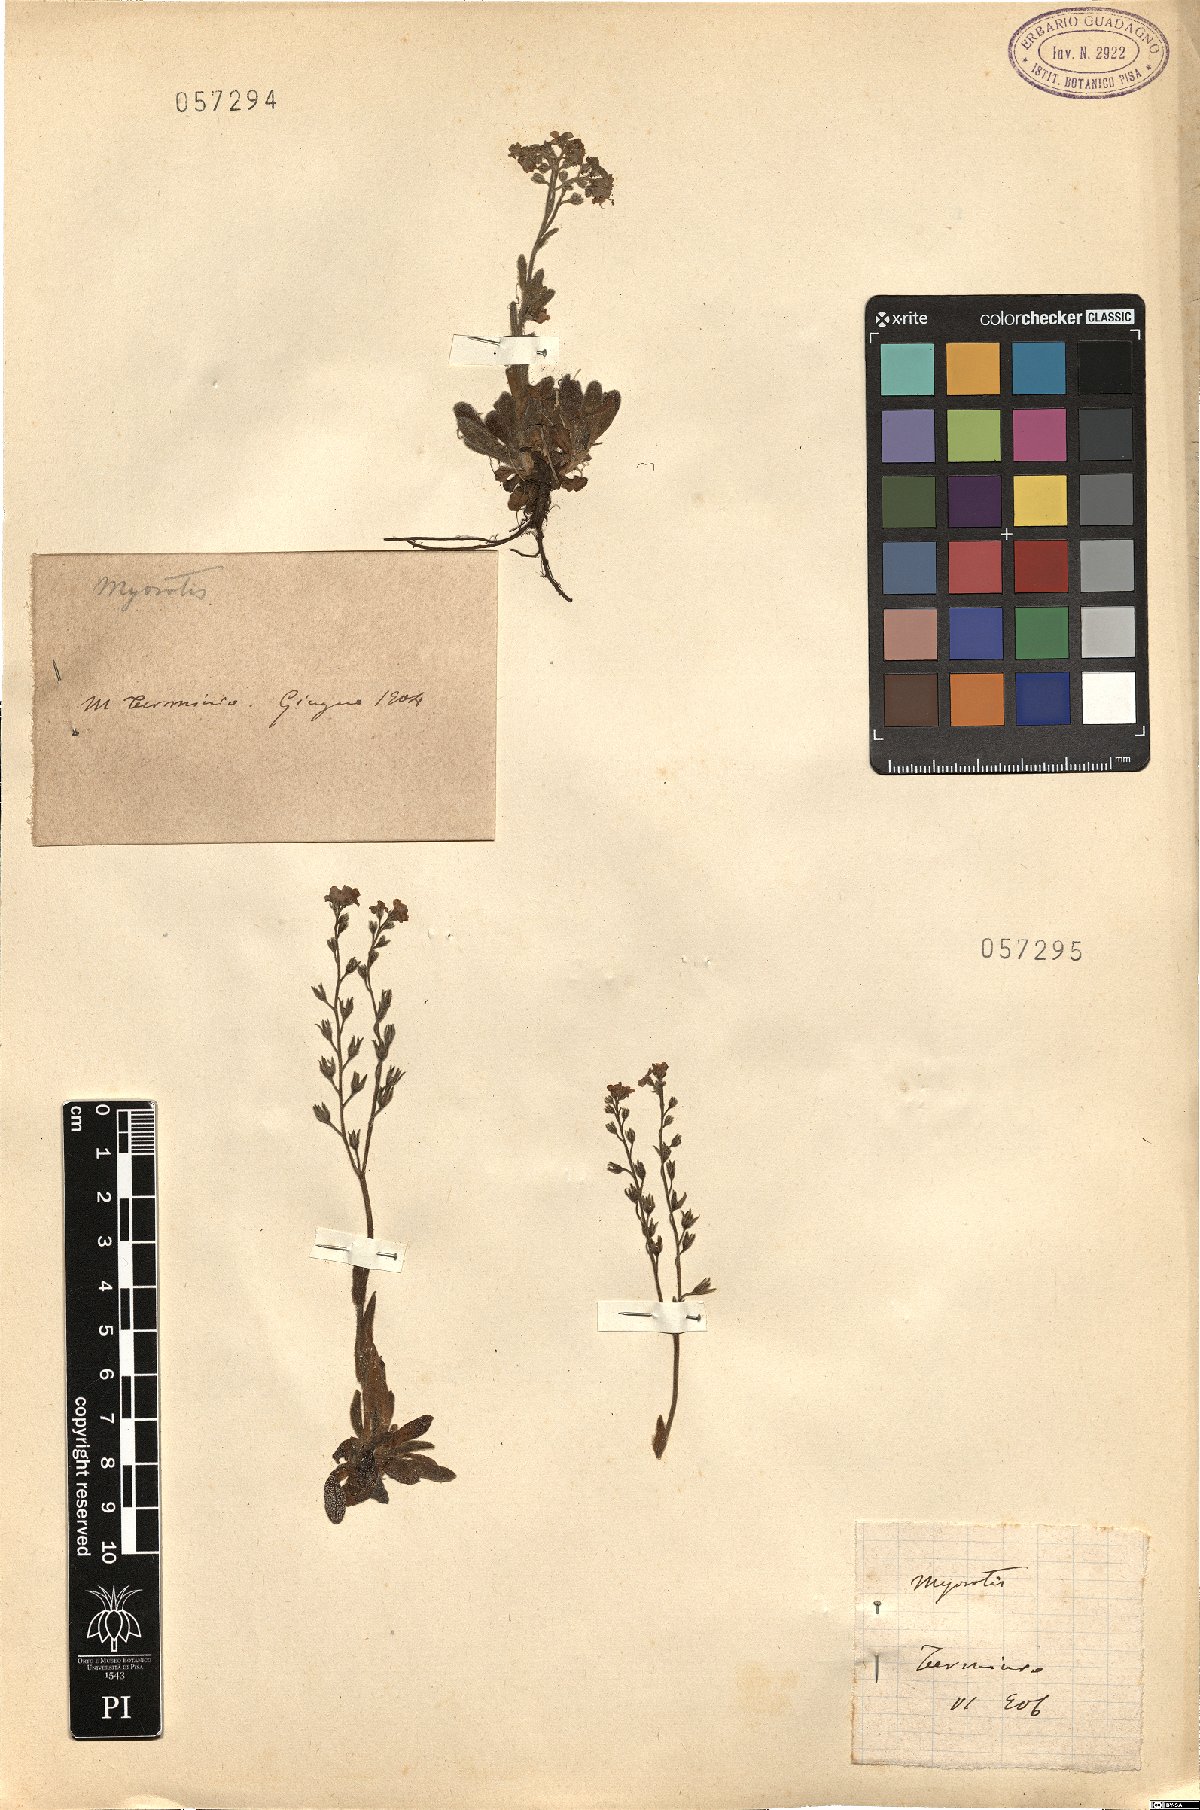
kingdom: Plantae
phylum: Tracheophyta
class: Magnoliopsida
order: Boraginales
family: Boraginaceae
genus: Myosotis
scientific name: Myosotis
